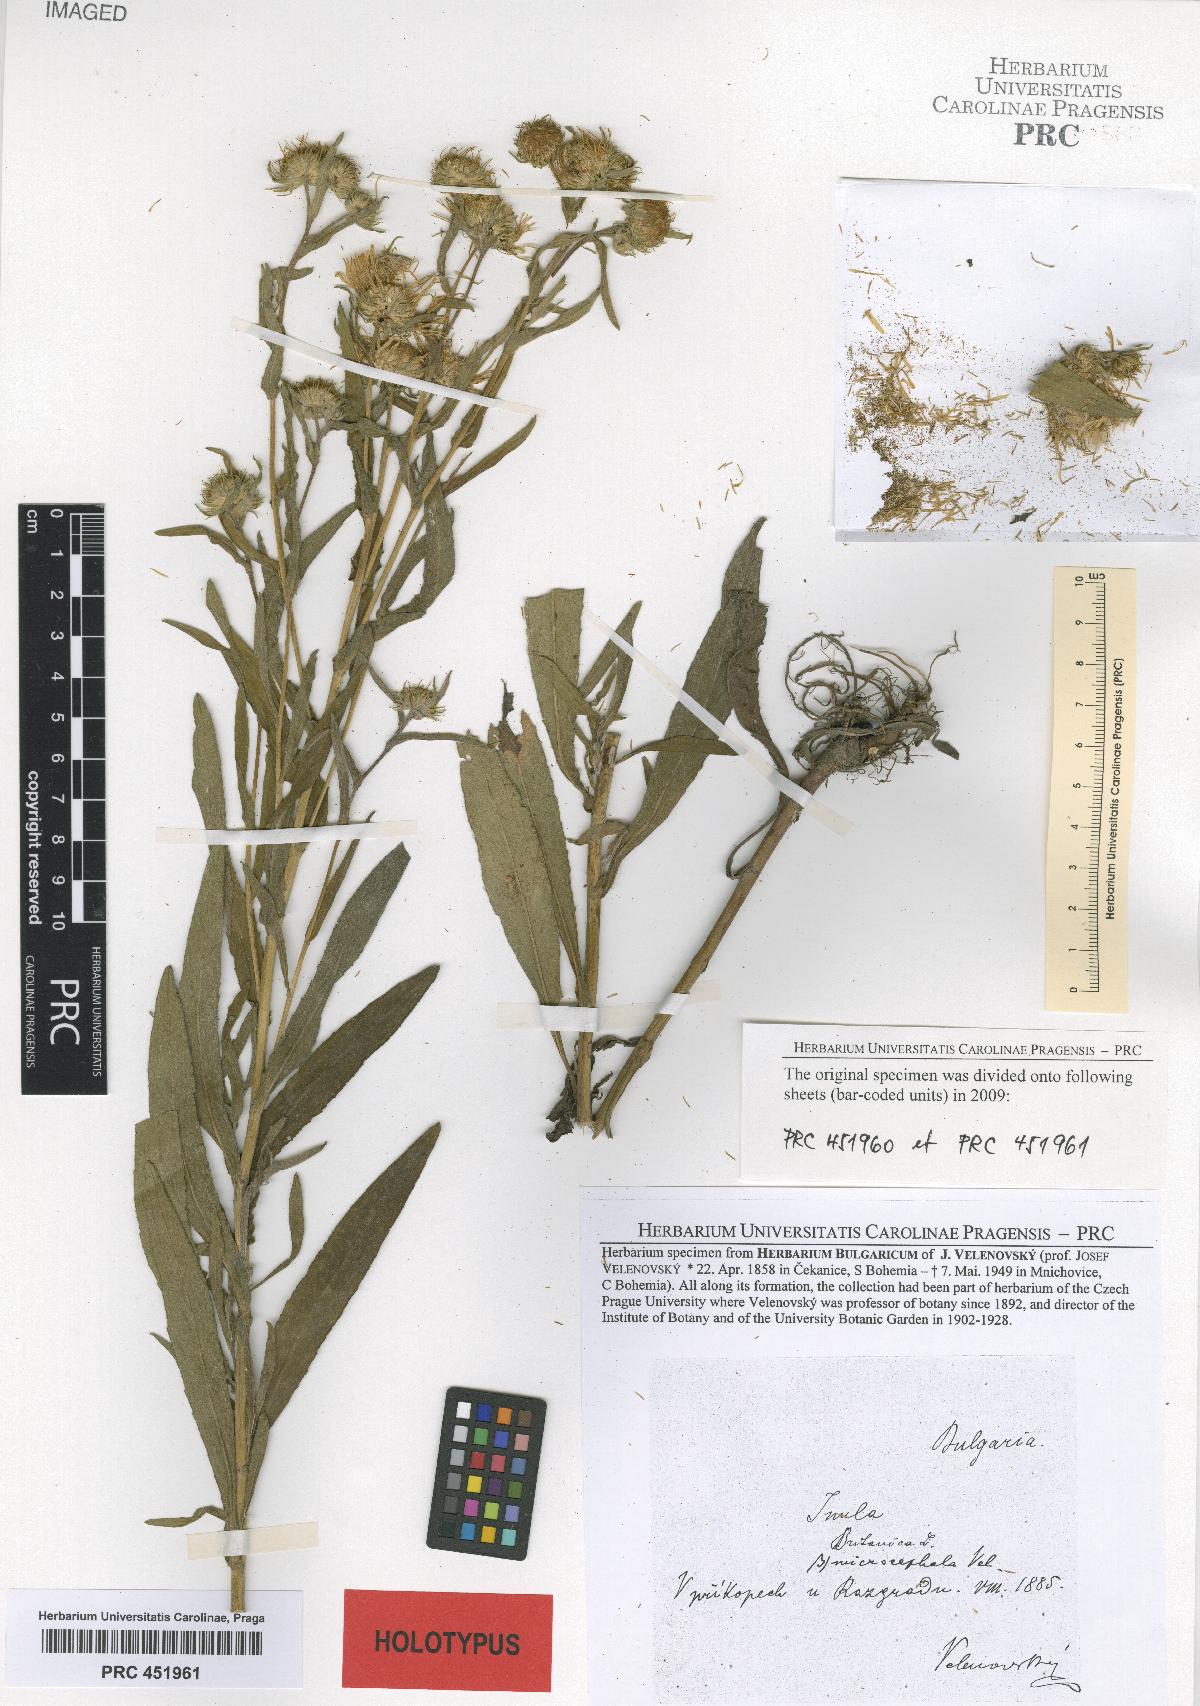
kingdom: Plantae
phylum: Tracheophyta
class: Magnoliopsida
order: Asterales
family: Asteraceae
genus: Pentanema
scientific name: Pentanema britannicum
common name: British elecampane
